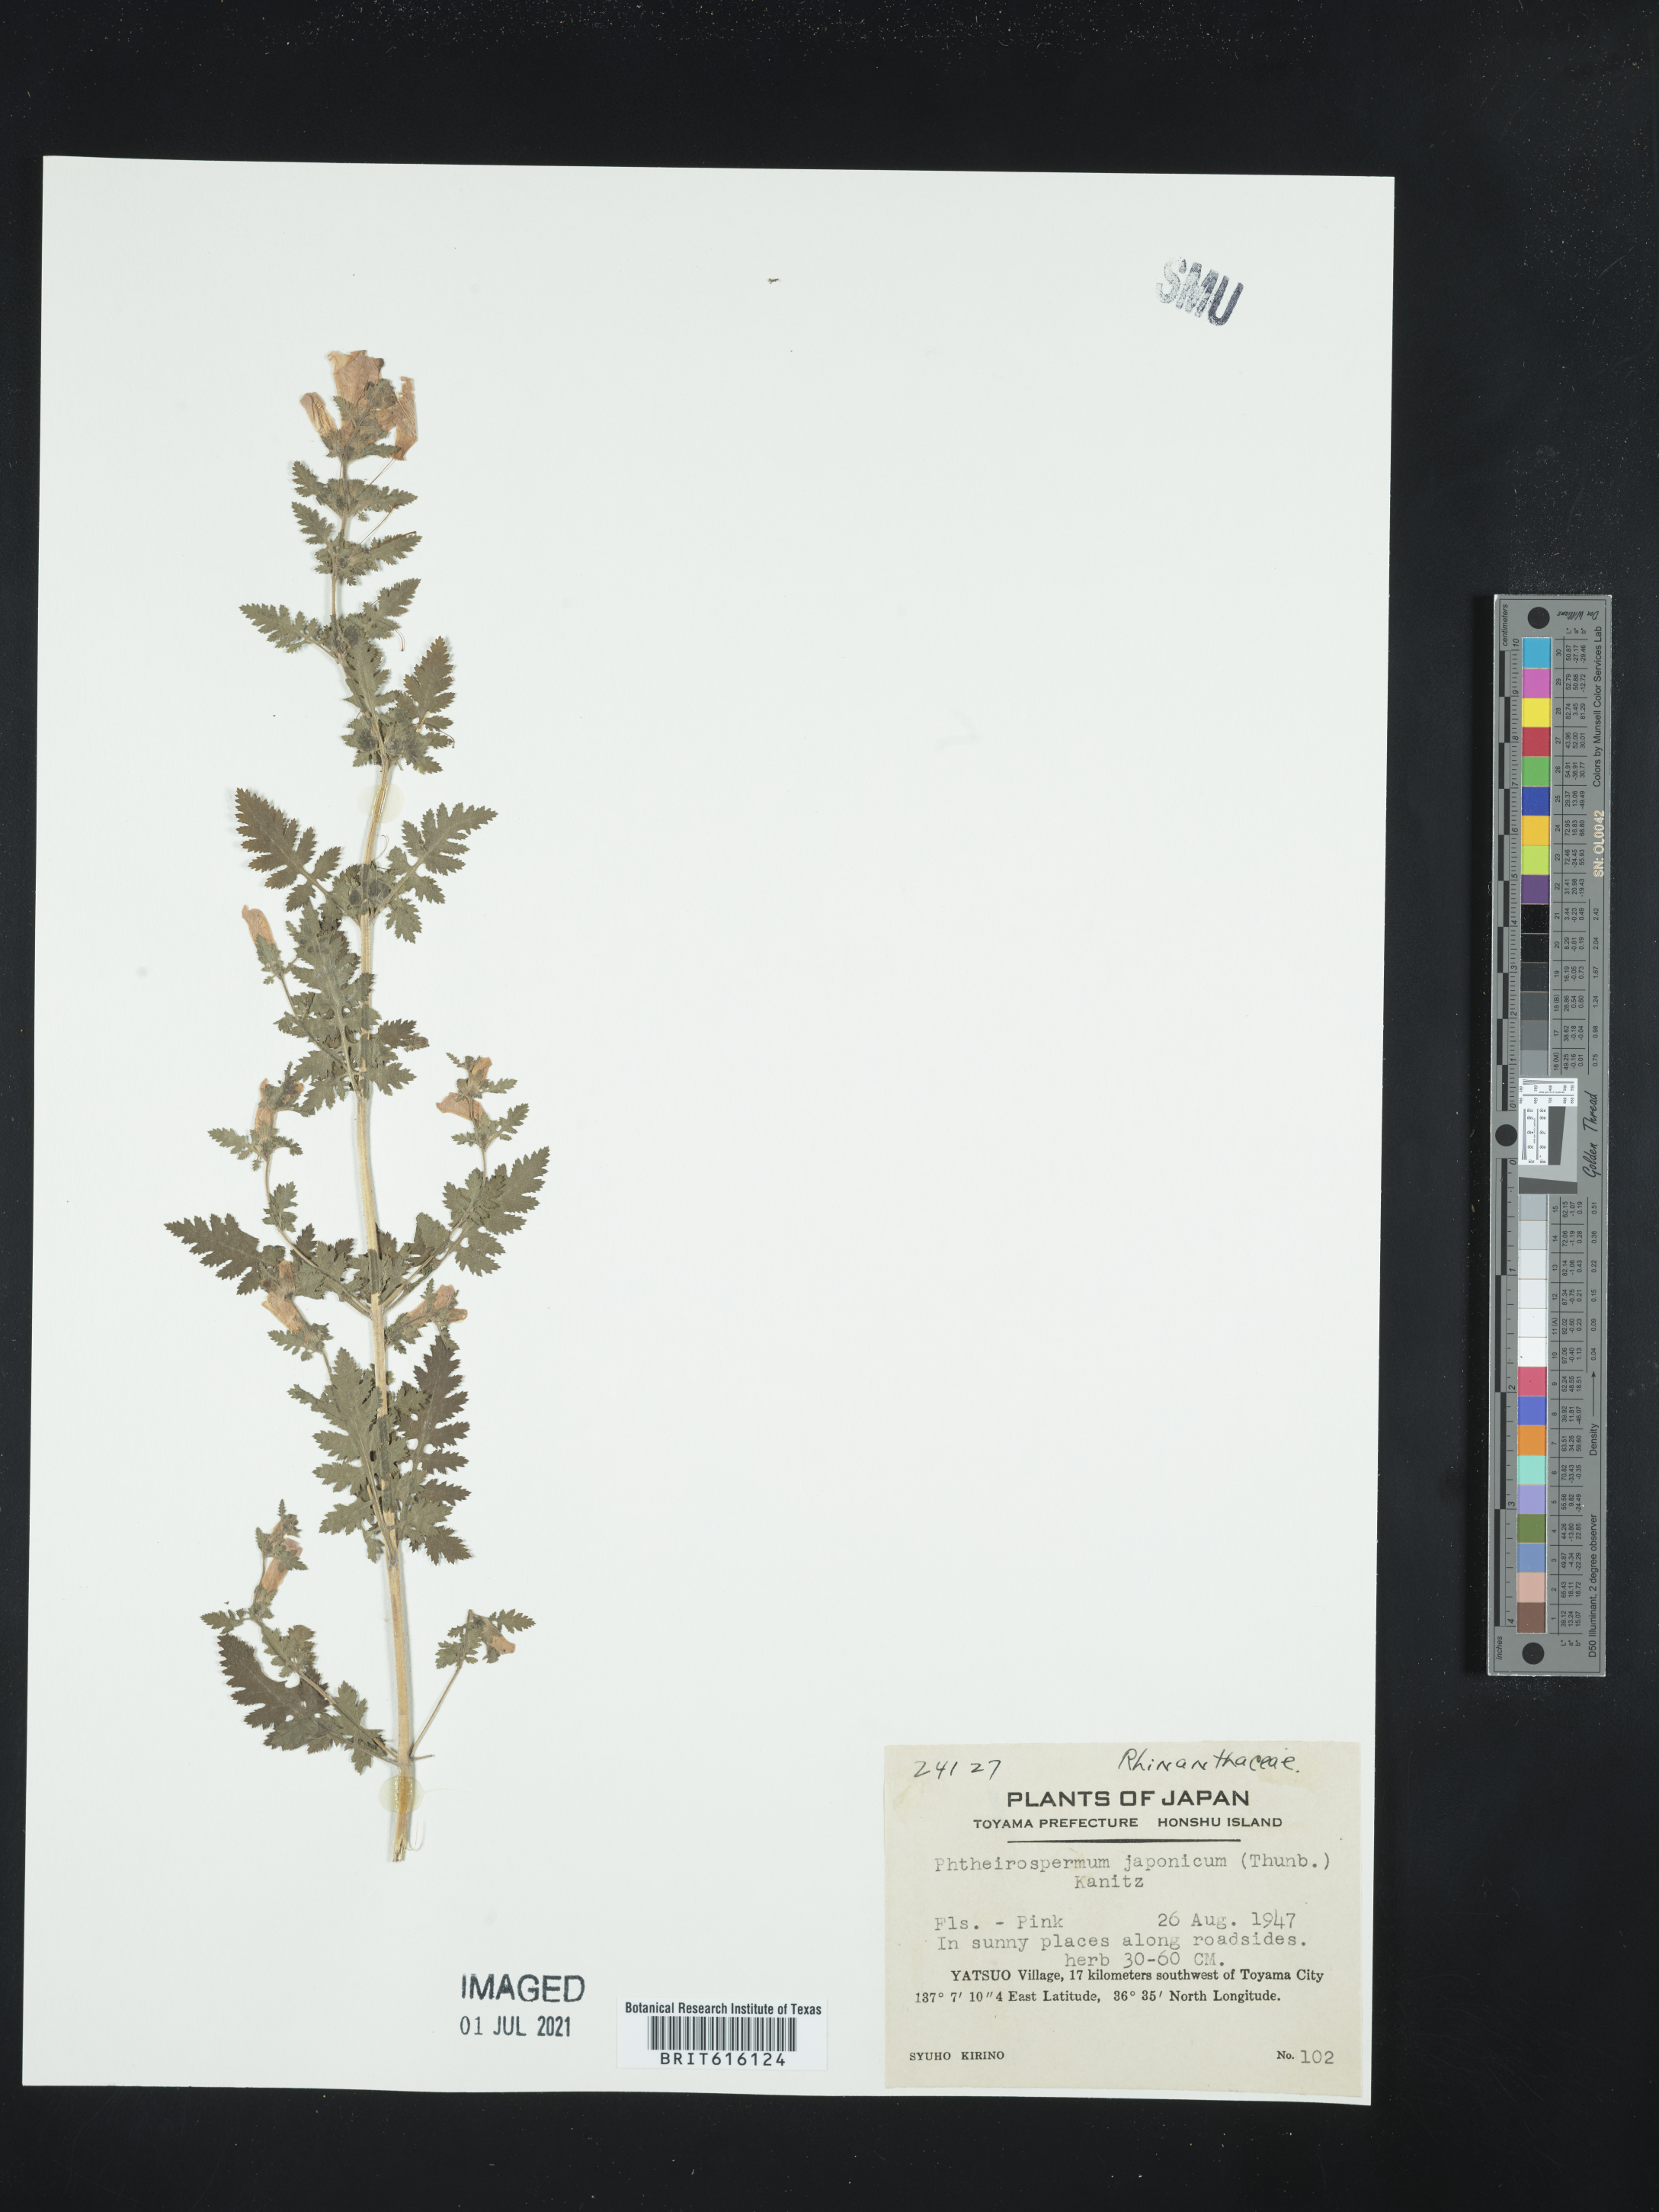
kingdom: Plantae
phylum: Tracheophyta
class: Magnoliopsida
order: Lamiales
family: Orobanchaceae
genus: Phtheirospermum
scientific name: Phtheirospermum japonicum
